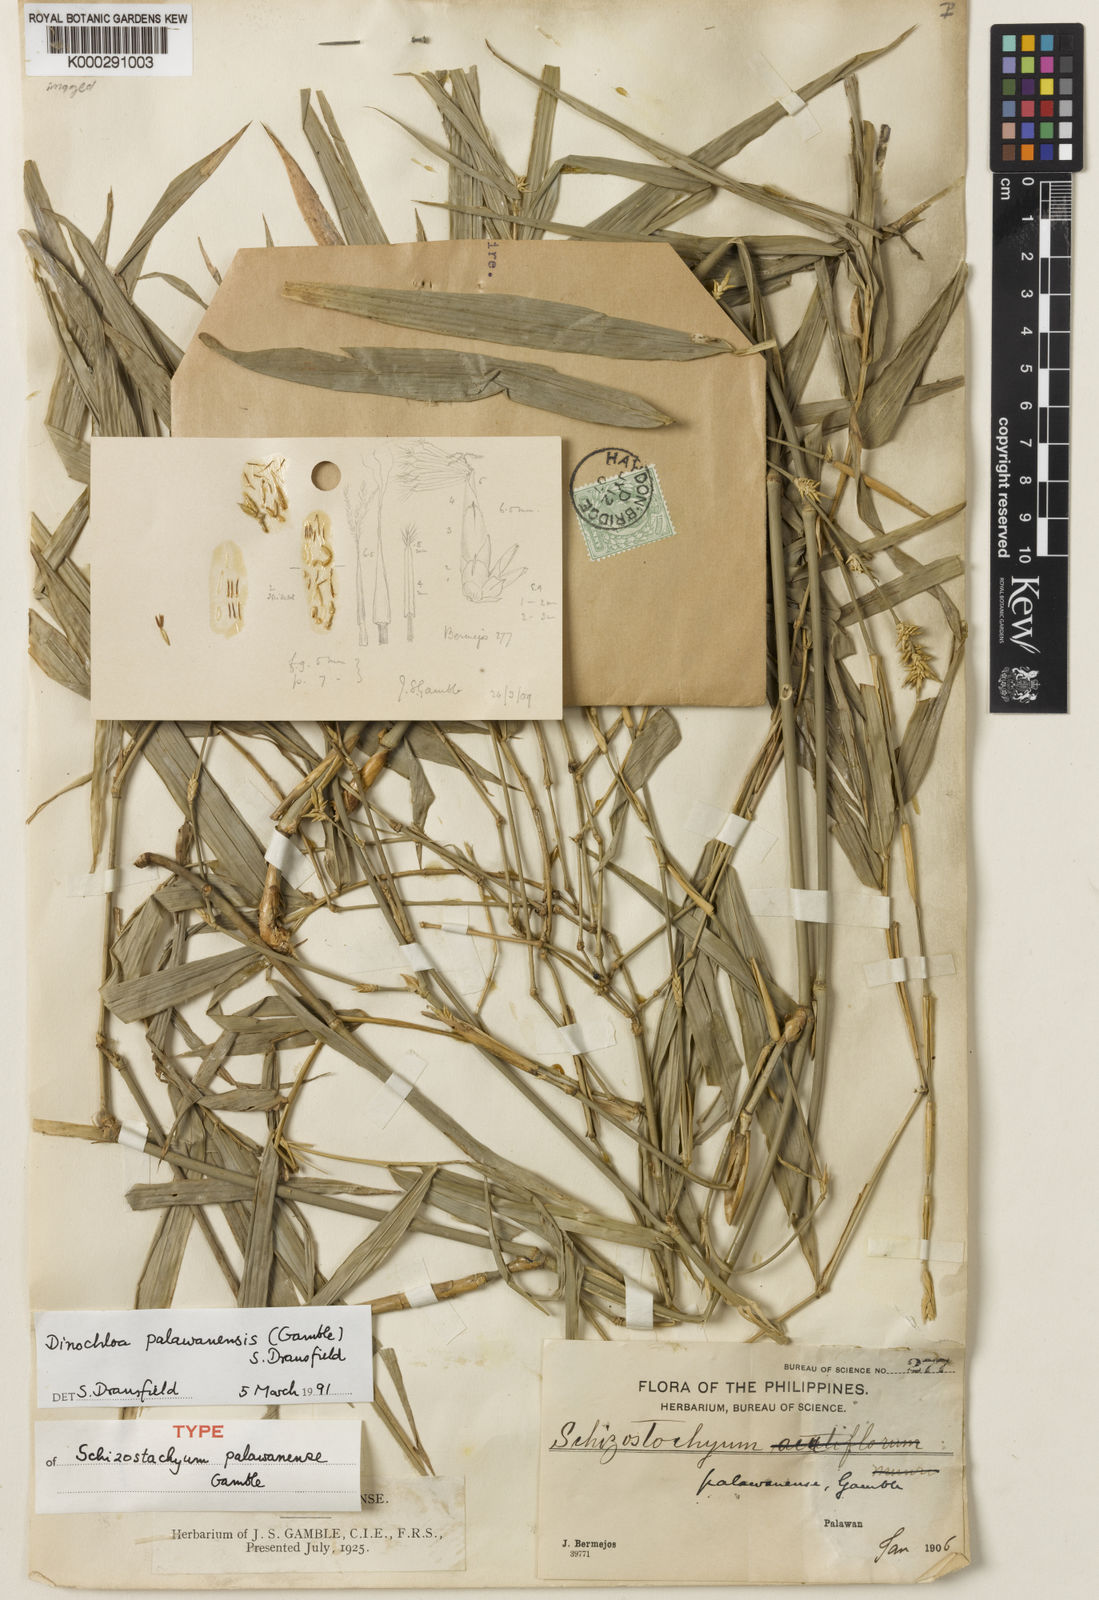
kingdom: Plantae
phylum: Tracheophyta
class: Liliopsida
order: Poales
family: Poaceae
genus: Dinochloa
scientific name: Dinochloa palawanensis
